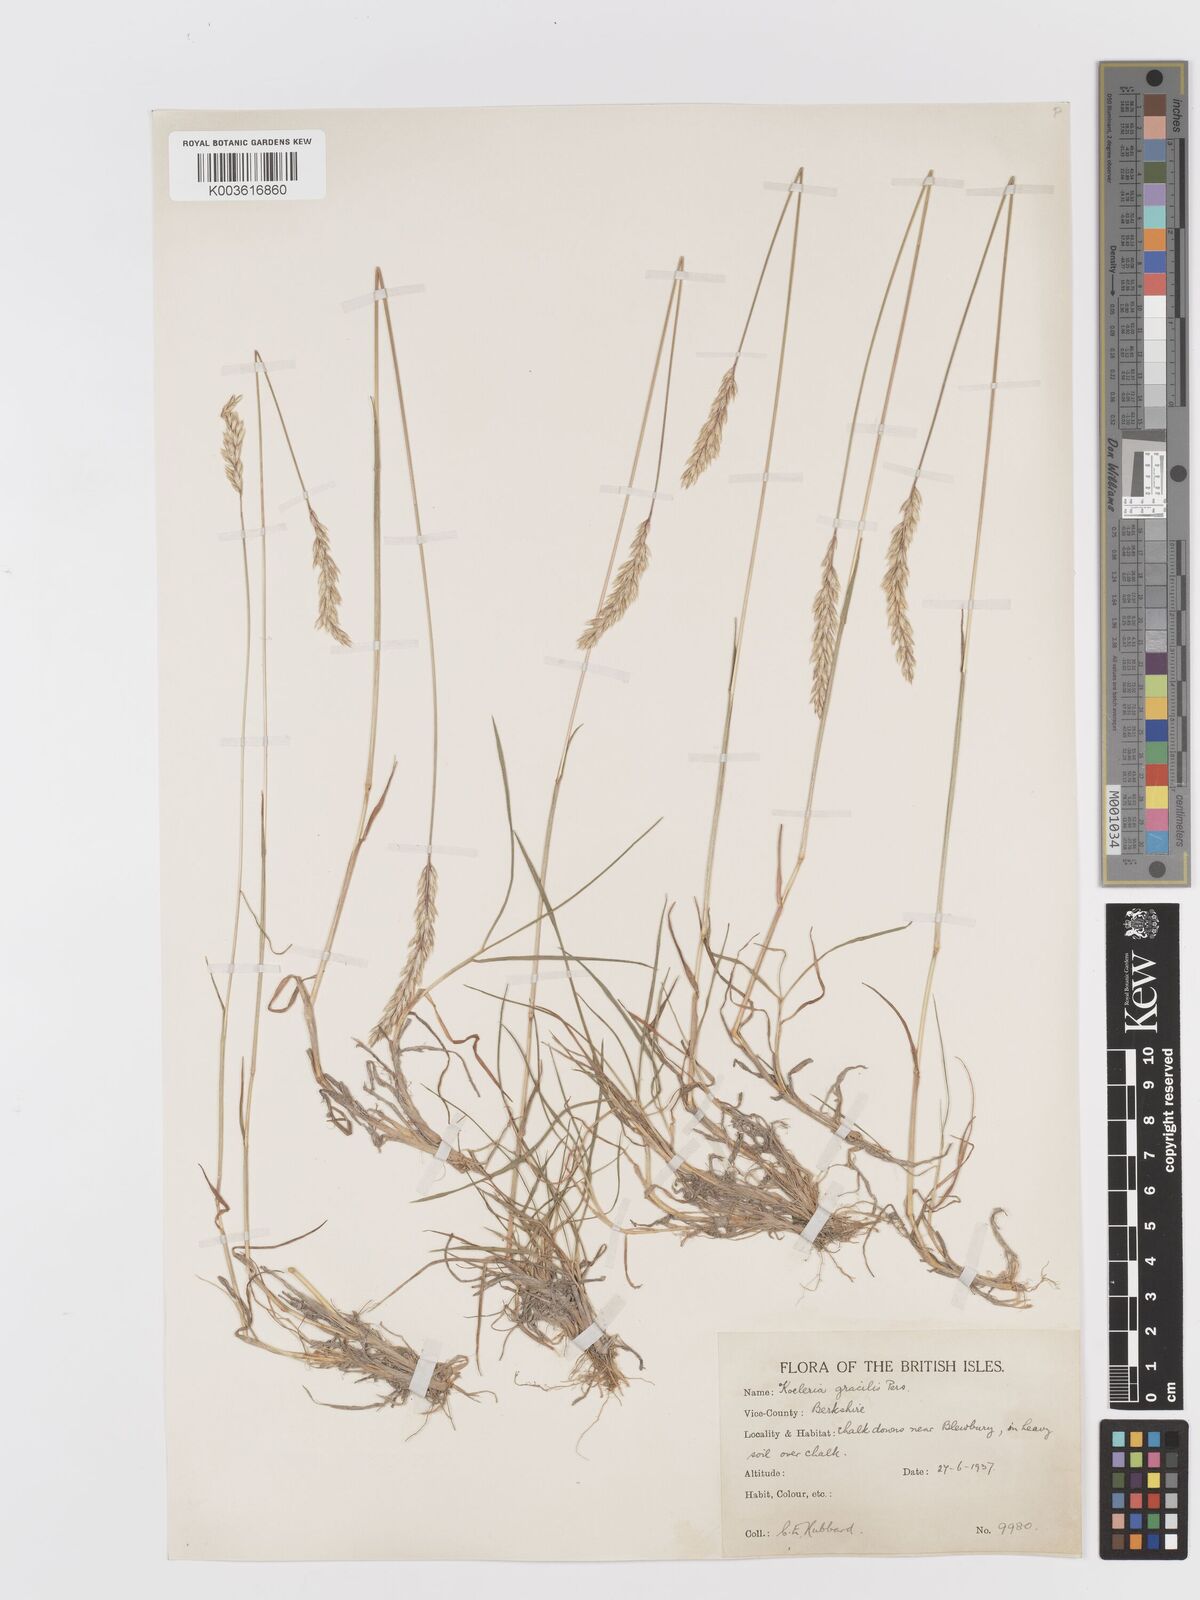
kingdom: Plantae
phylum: Tracheophyta
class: Liliopsida
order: Poales
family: Poaceae
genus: Koeleria
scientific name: Koeleria macrantha
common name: Crested hair-grass
